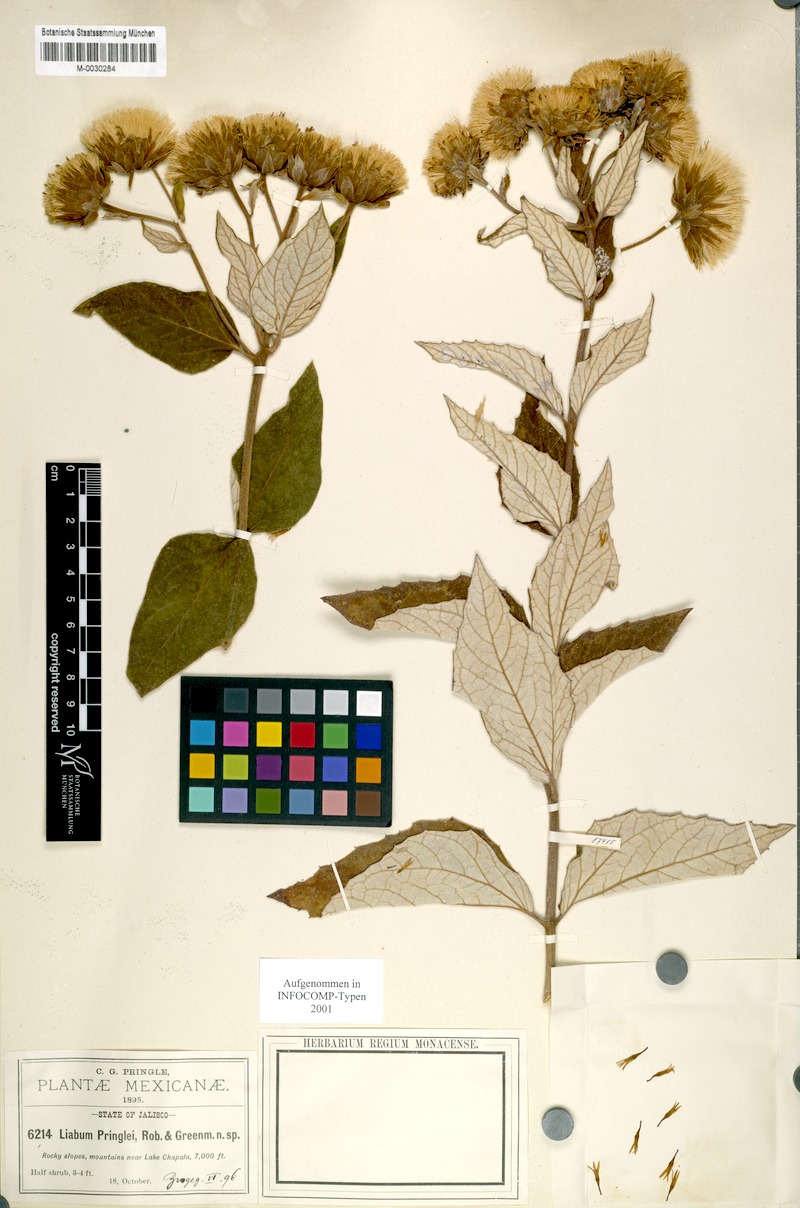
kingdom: Plantae
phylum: Tracheophyta
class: Magnoliopsida
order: Asterales
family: Asteraceae
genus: Sinclairia
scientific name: Sinclairia pringlei
